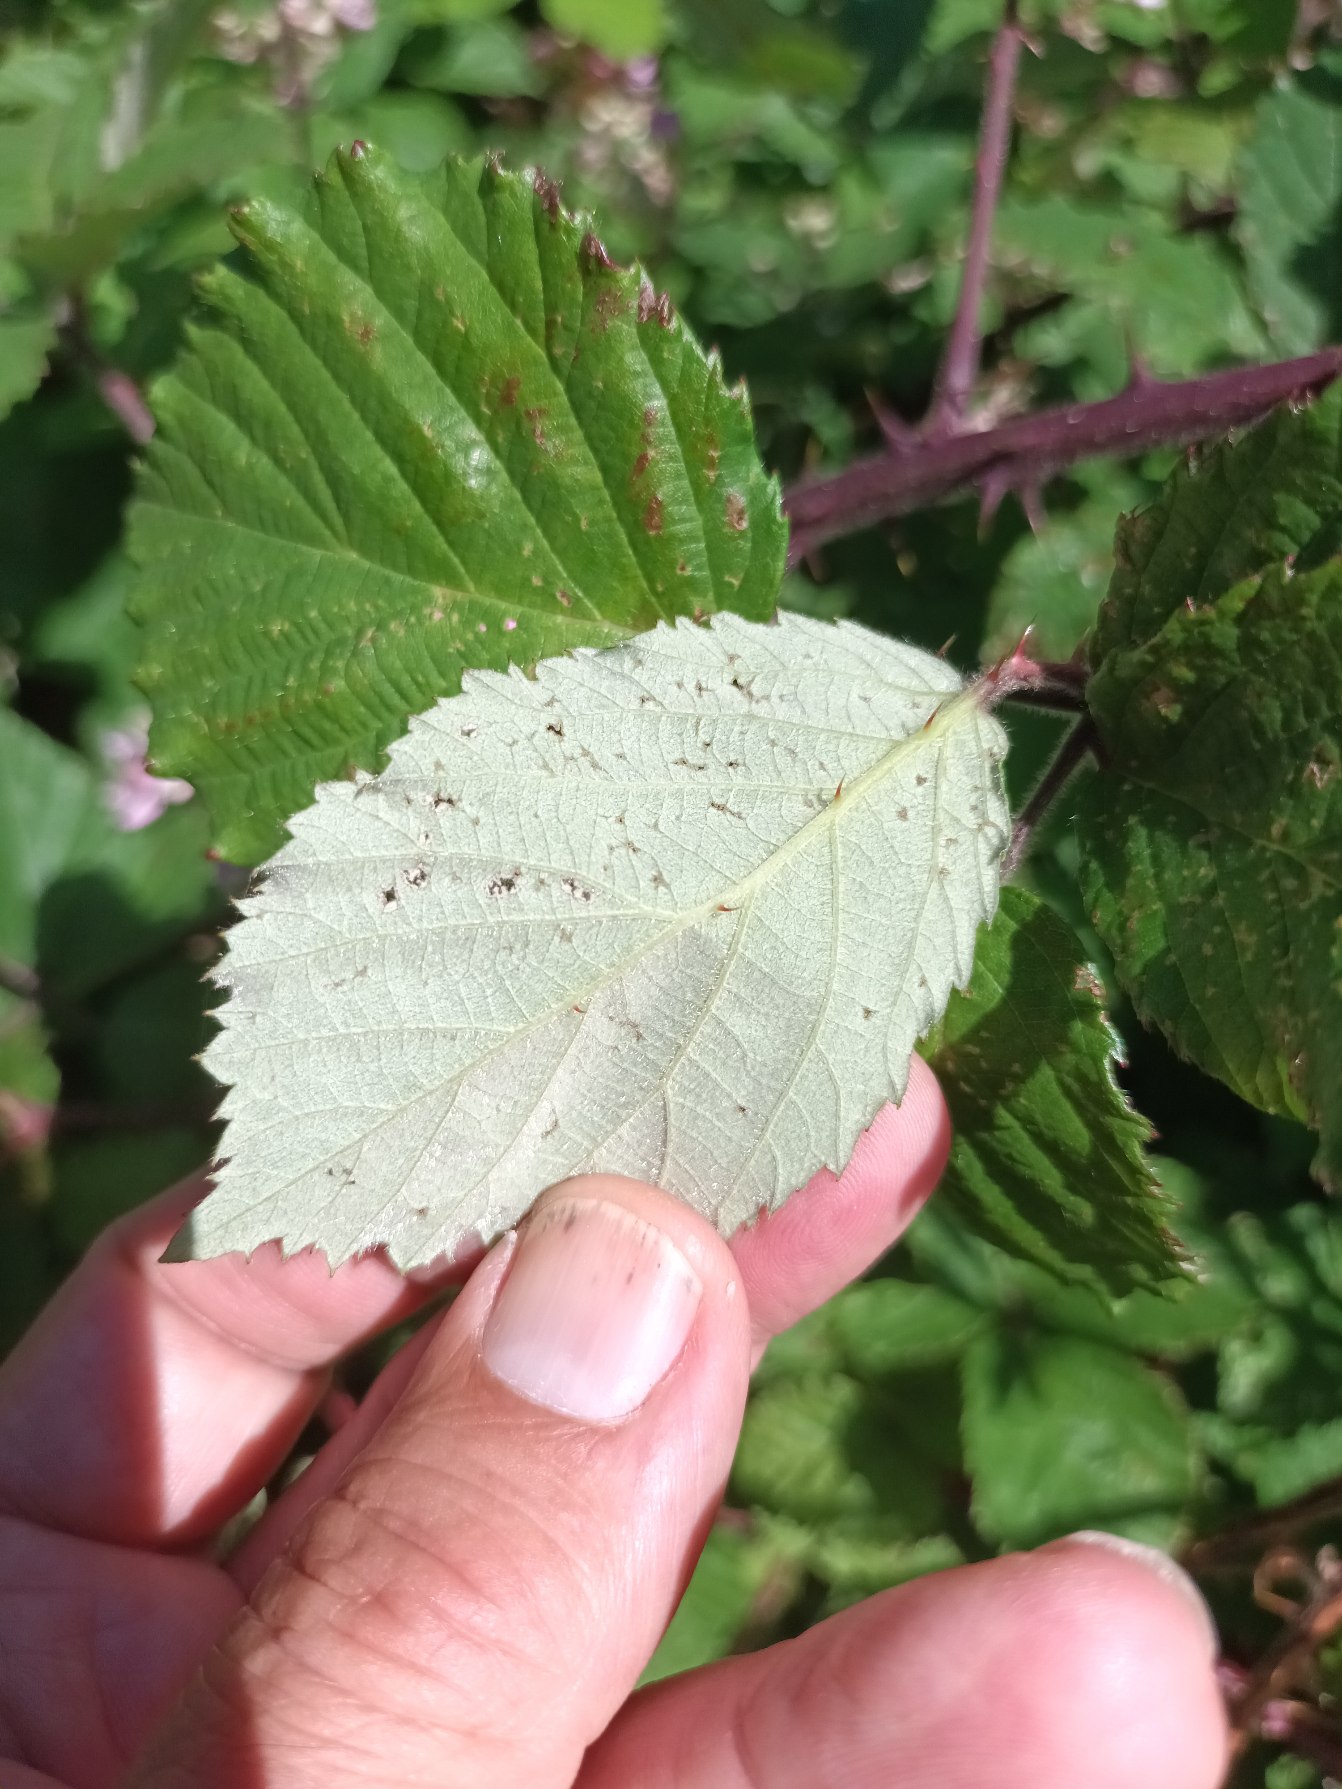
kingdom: Plantae
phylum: Tracheophyta
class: Magnoliopsida
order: Rosales
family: Rosaceae
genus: Rubus
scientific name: Rubus vestitus
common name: Rundbladet brombær
